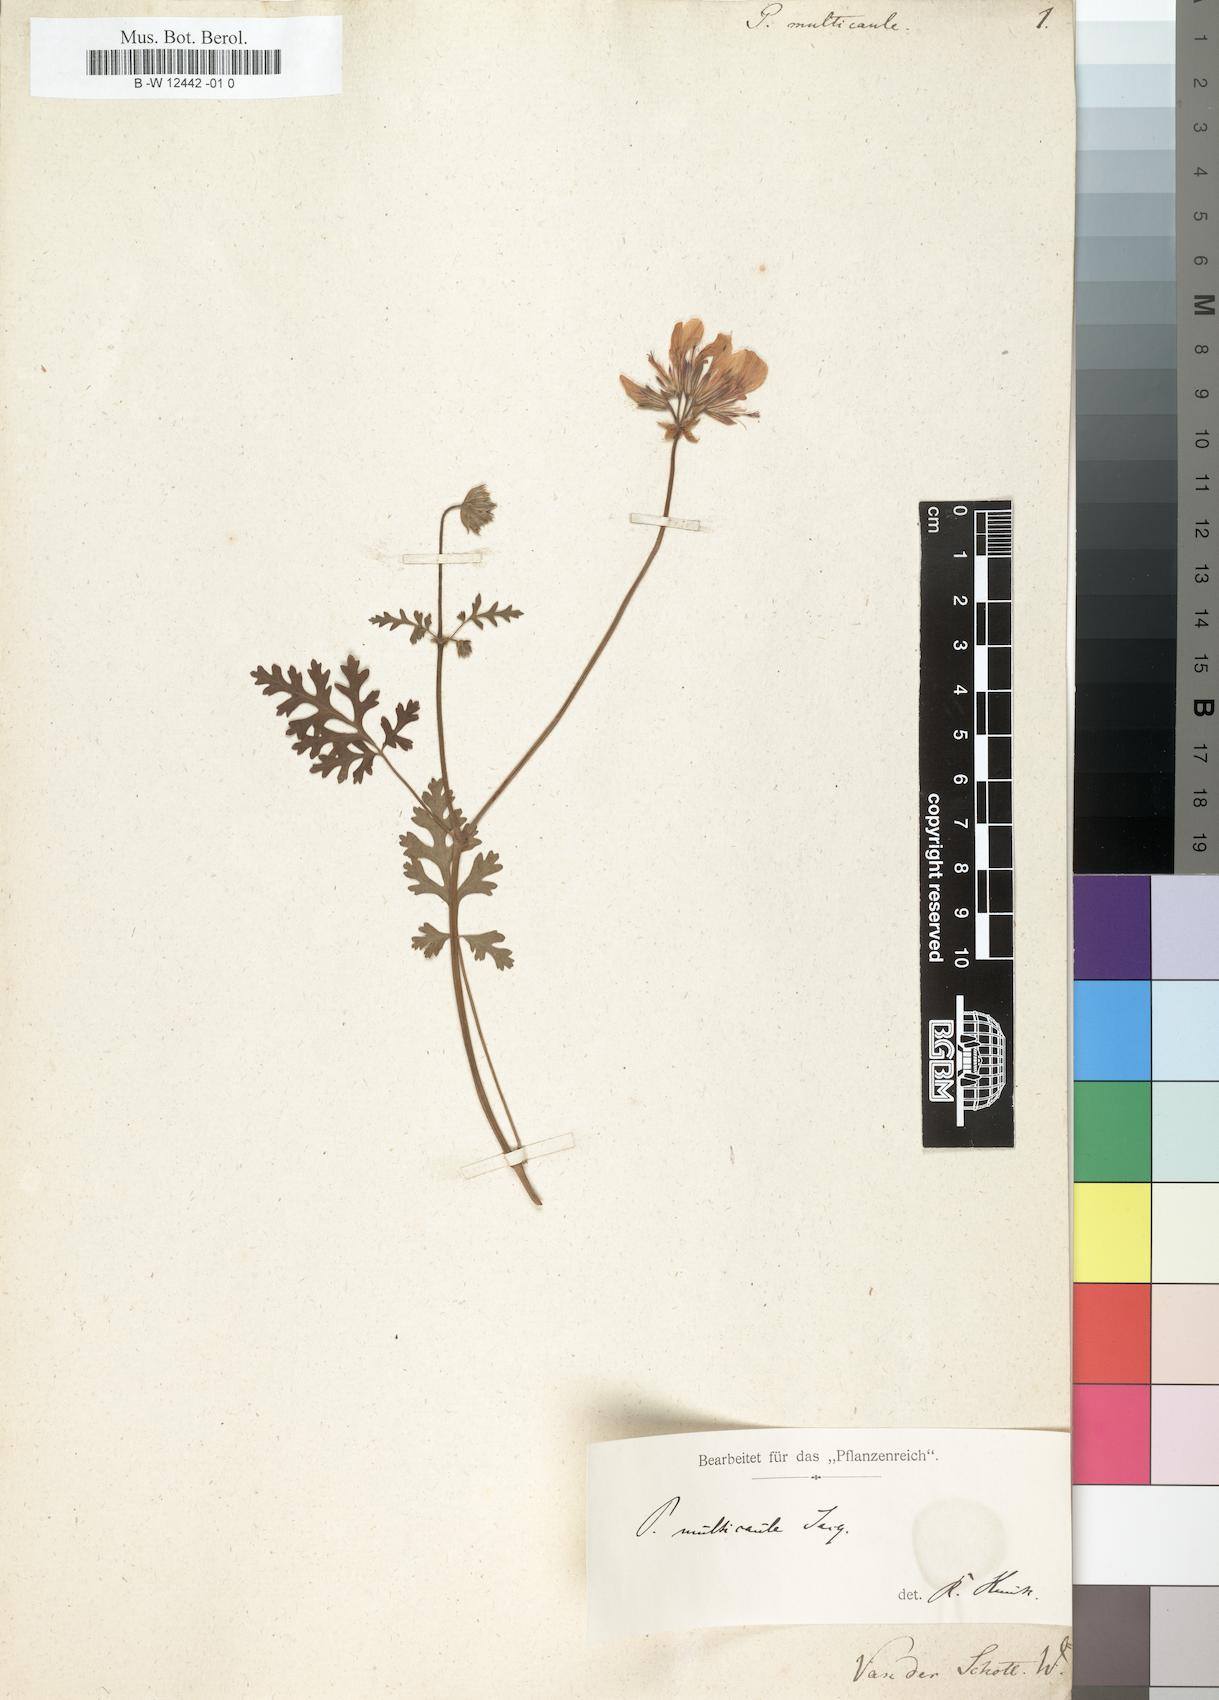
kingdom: Plantae
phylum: Tracheophyta
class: Magnoliopsida
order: Geraniales
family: Geraniaceae
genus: Pelargonium
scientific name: Pelargonium multicaule
